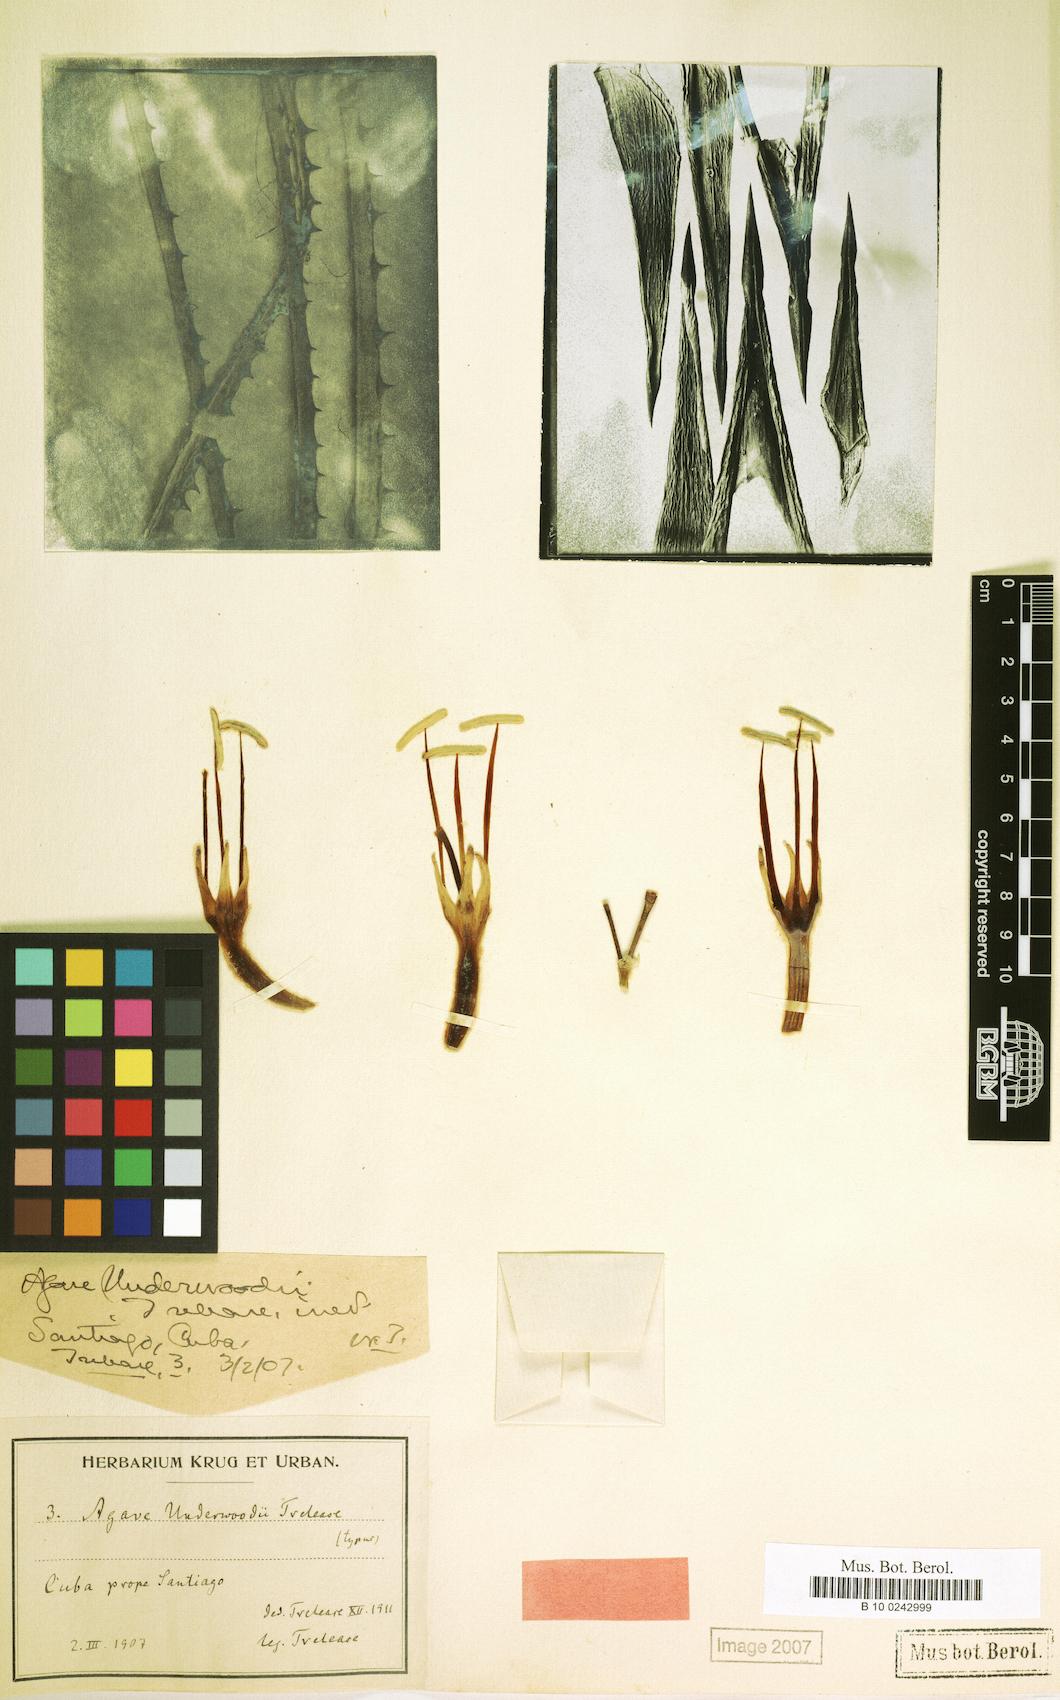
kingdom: Plantae
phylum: Tracheophyta
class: Liliopsida
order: Asparagales
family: Asparagaceae
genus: Agave
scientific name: Agave underwoodii
